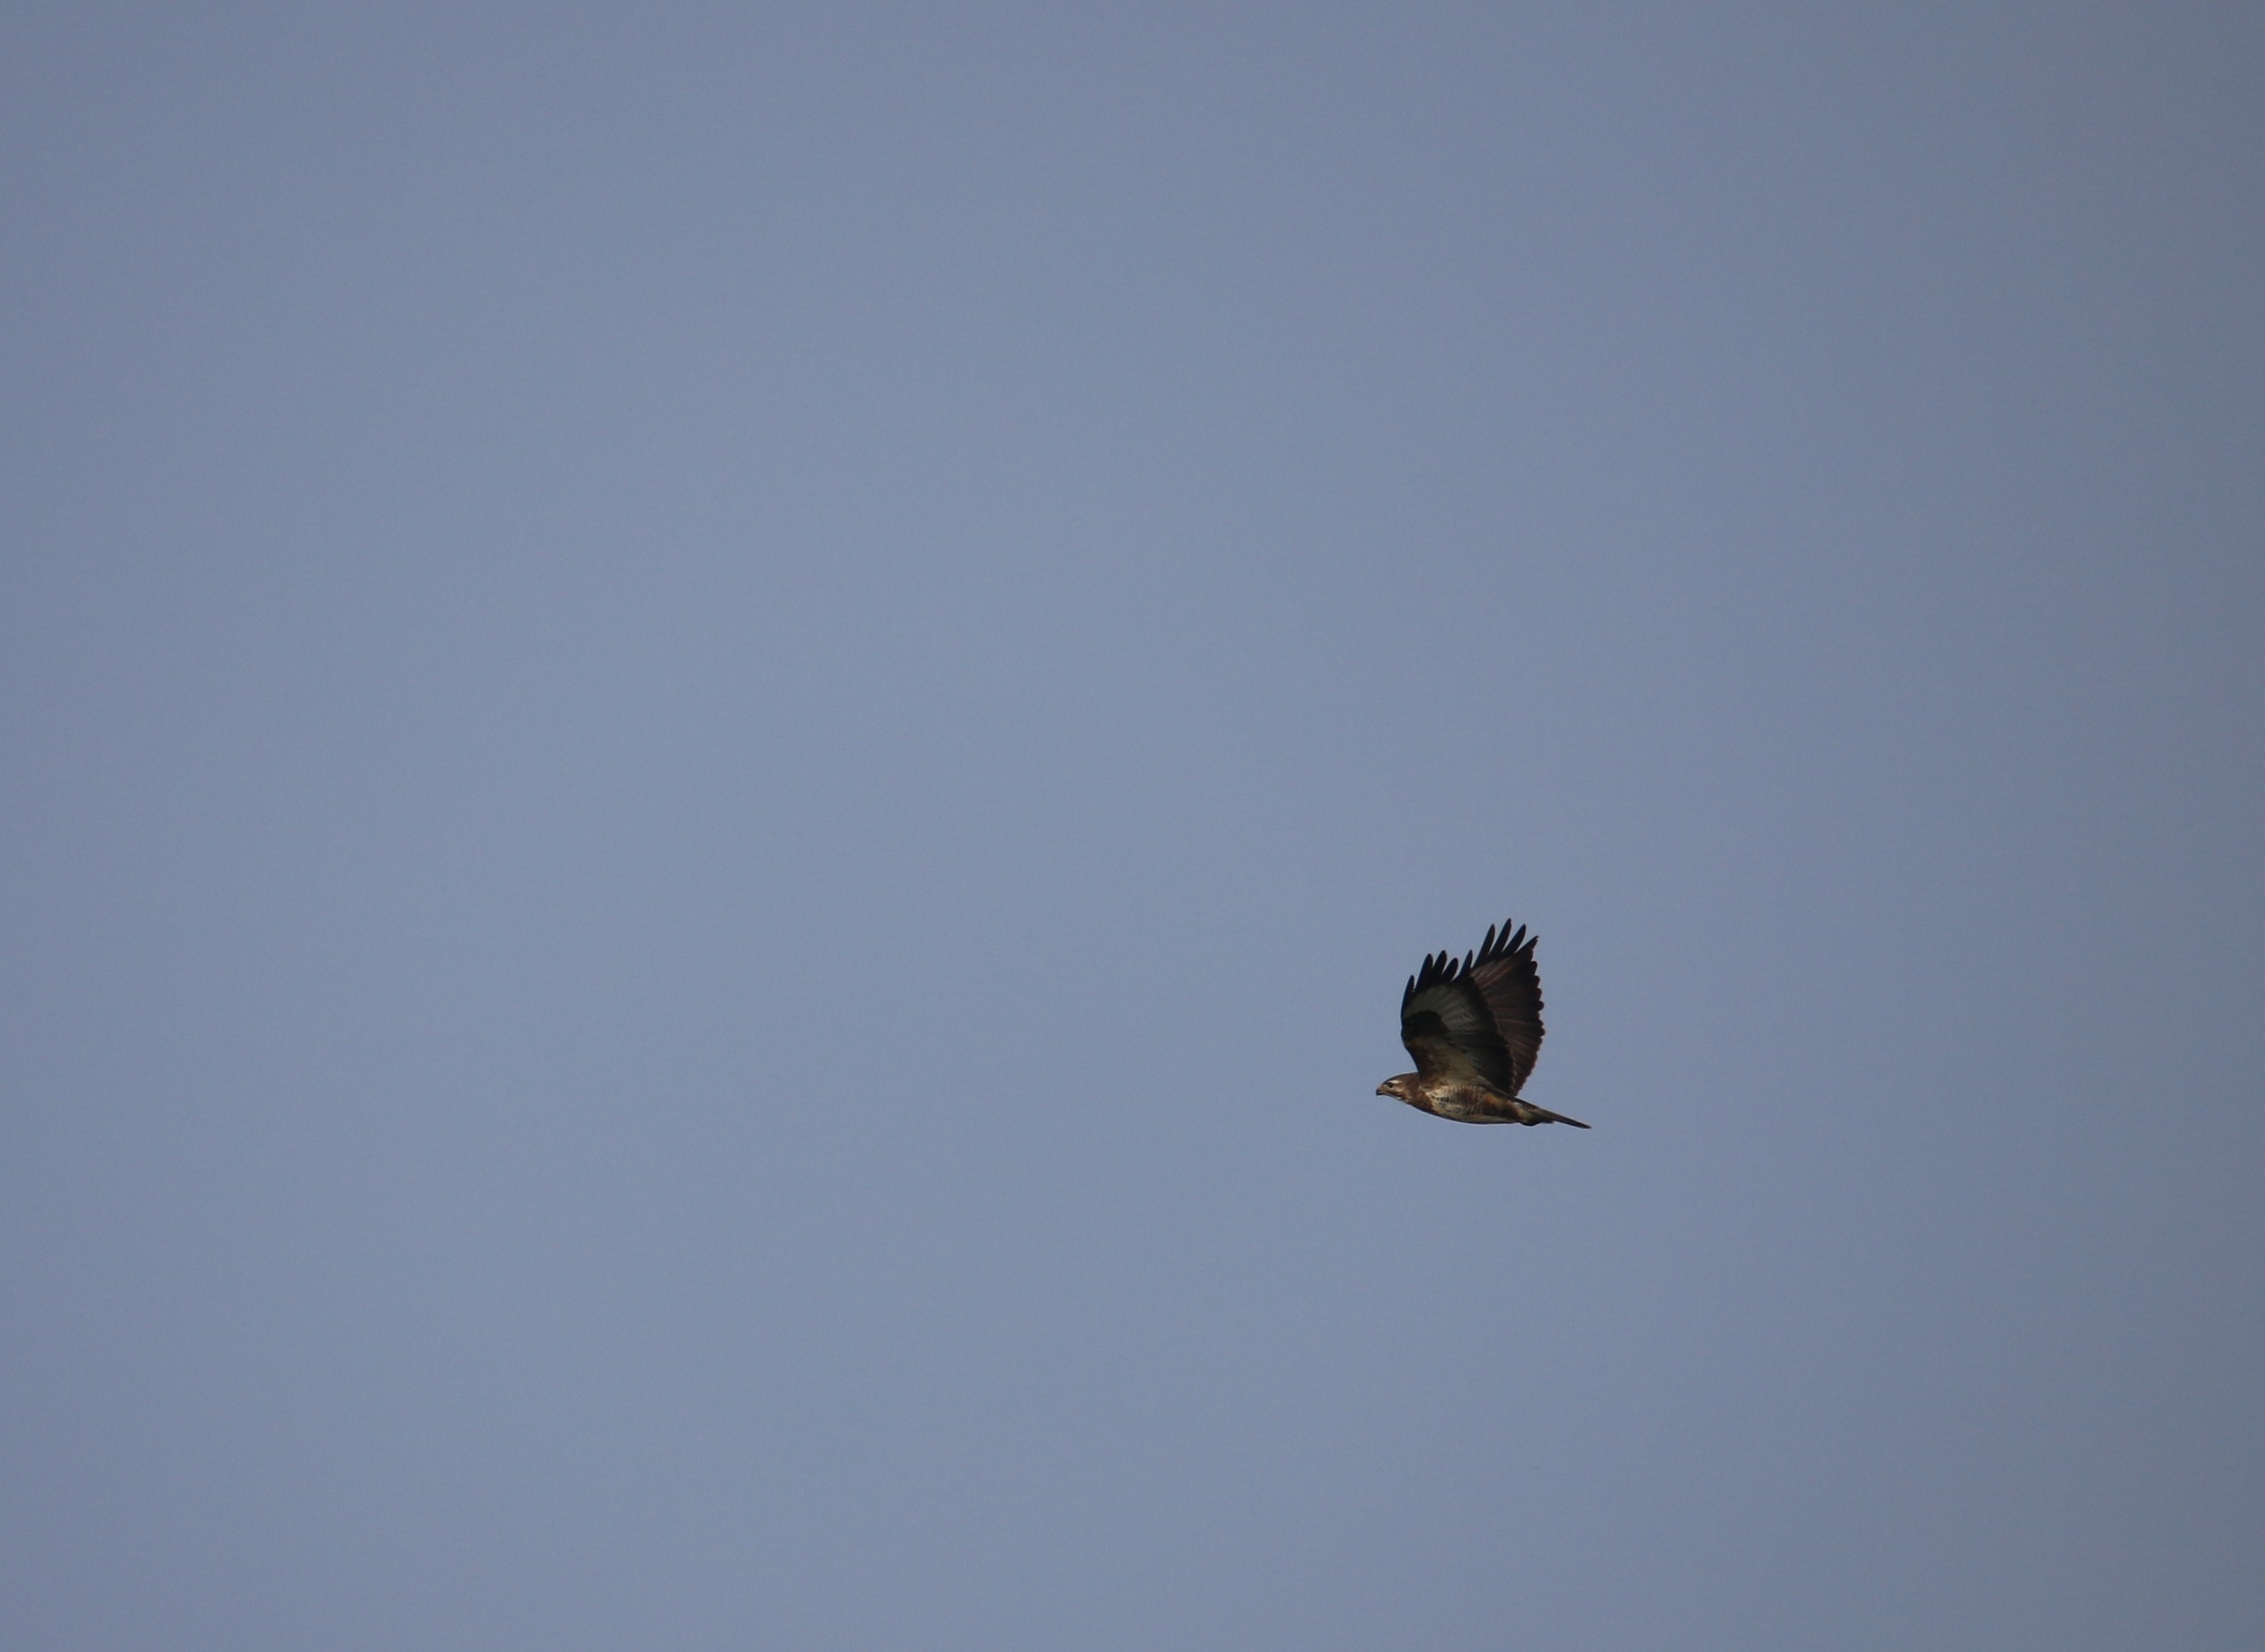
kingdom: Animalia
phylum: Chordata
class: Aves
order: Accipitriformes
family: Accipitridae
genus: Buteo
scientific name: Buteo buteo
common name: Musvåge
